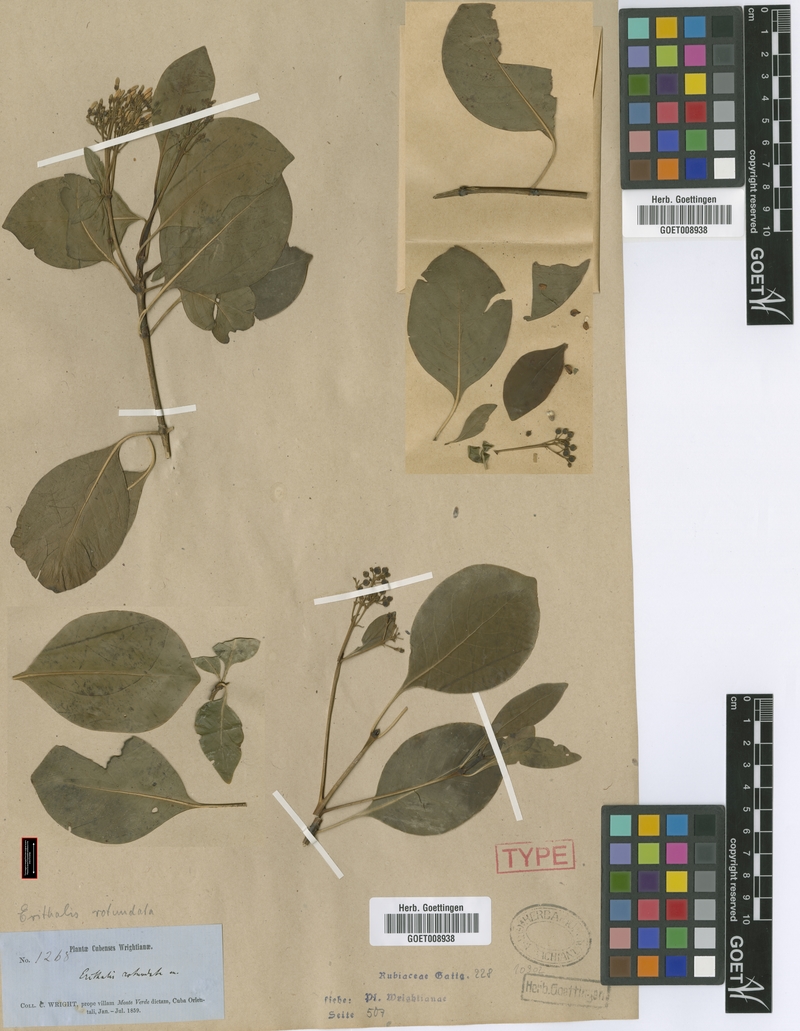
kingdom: Plantae
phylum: Tracheophyta
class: Magnoliopsida
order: Gentianales
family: Rubiaceae
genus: Erithalis
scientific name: Erithalis odorifera
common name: Scented blacktorch
